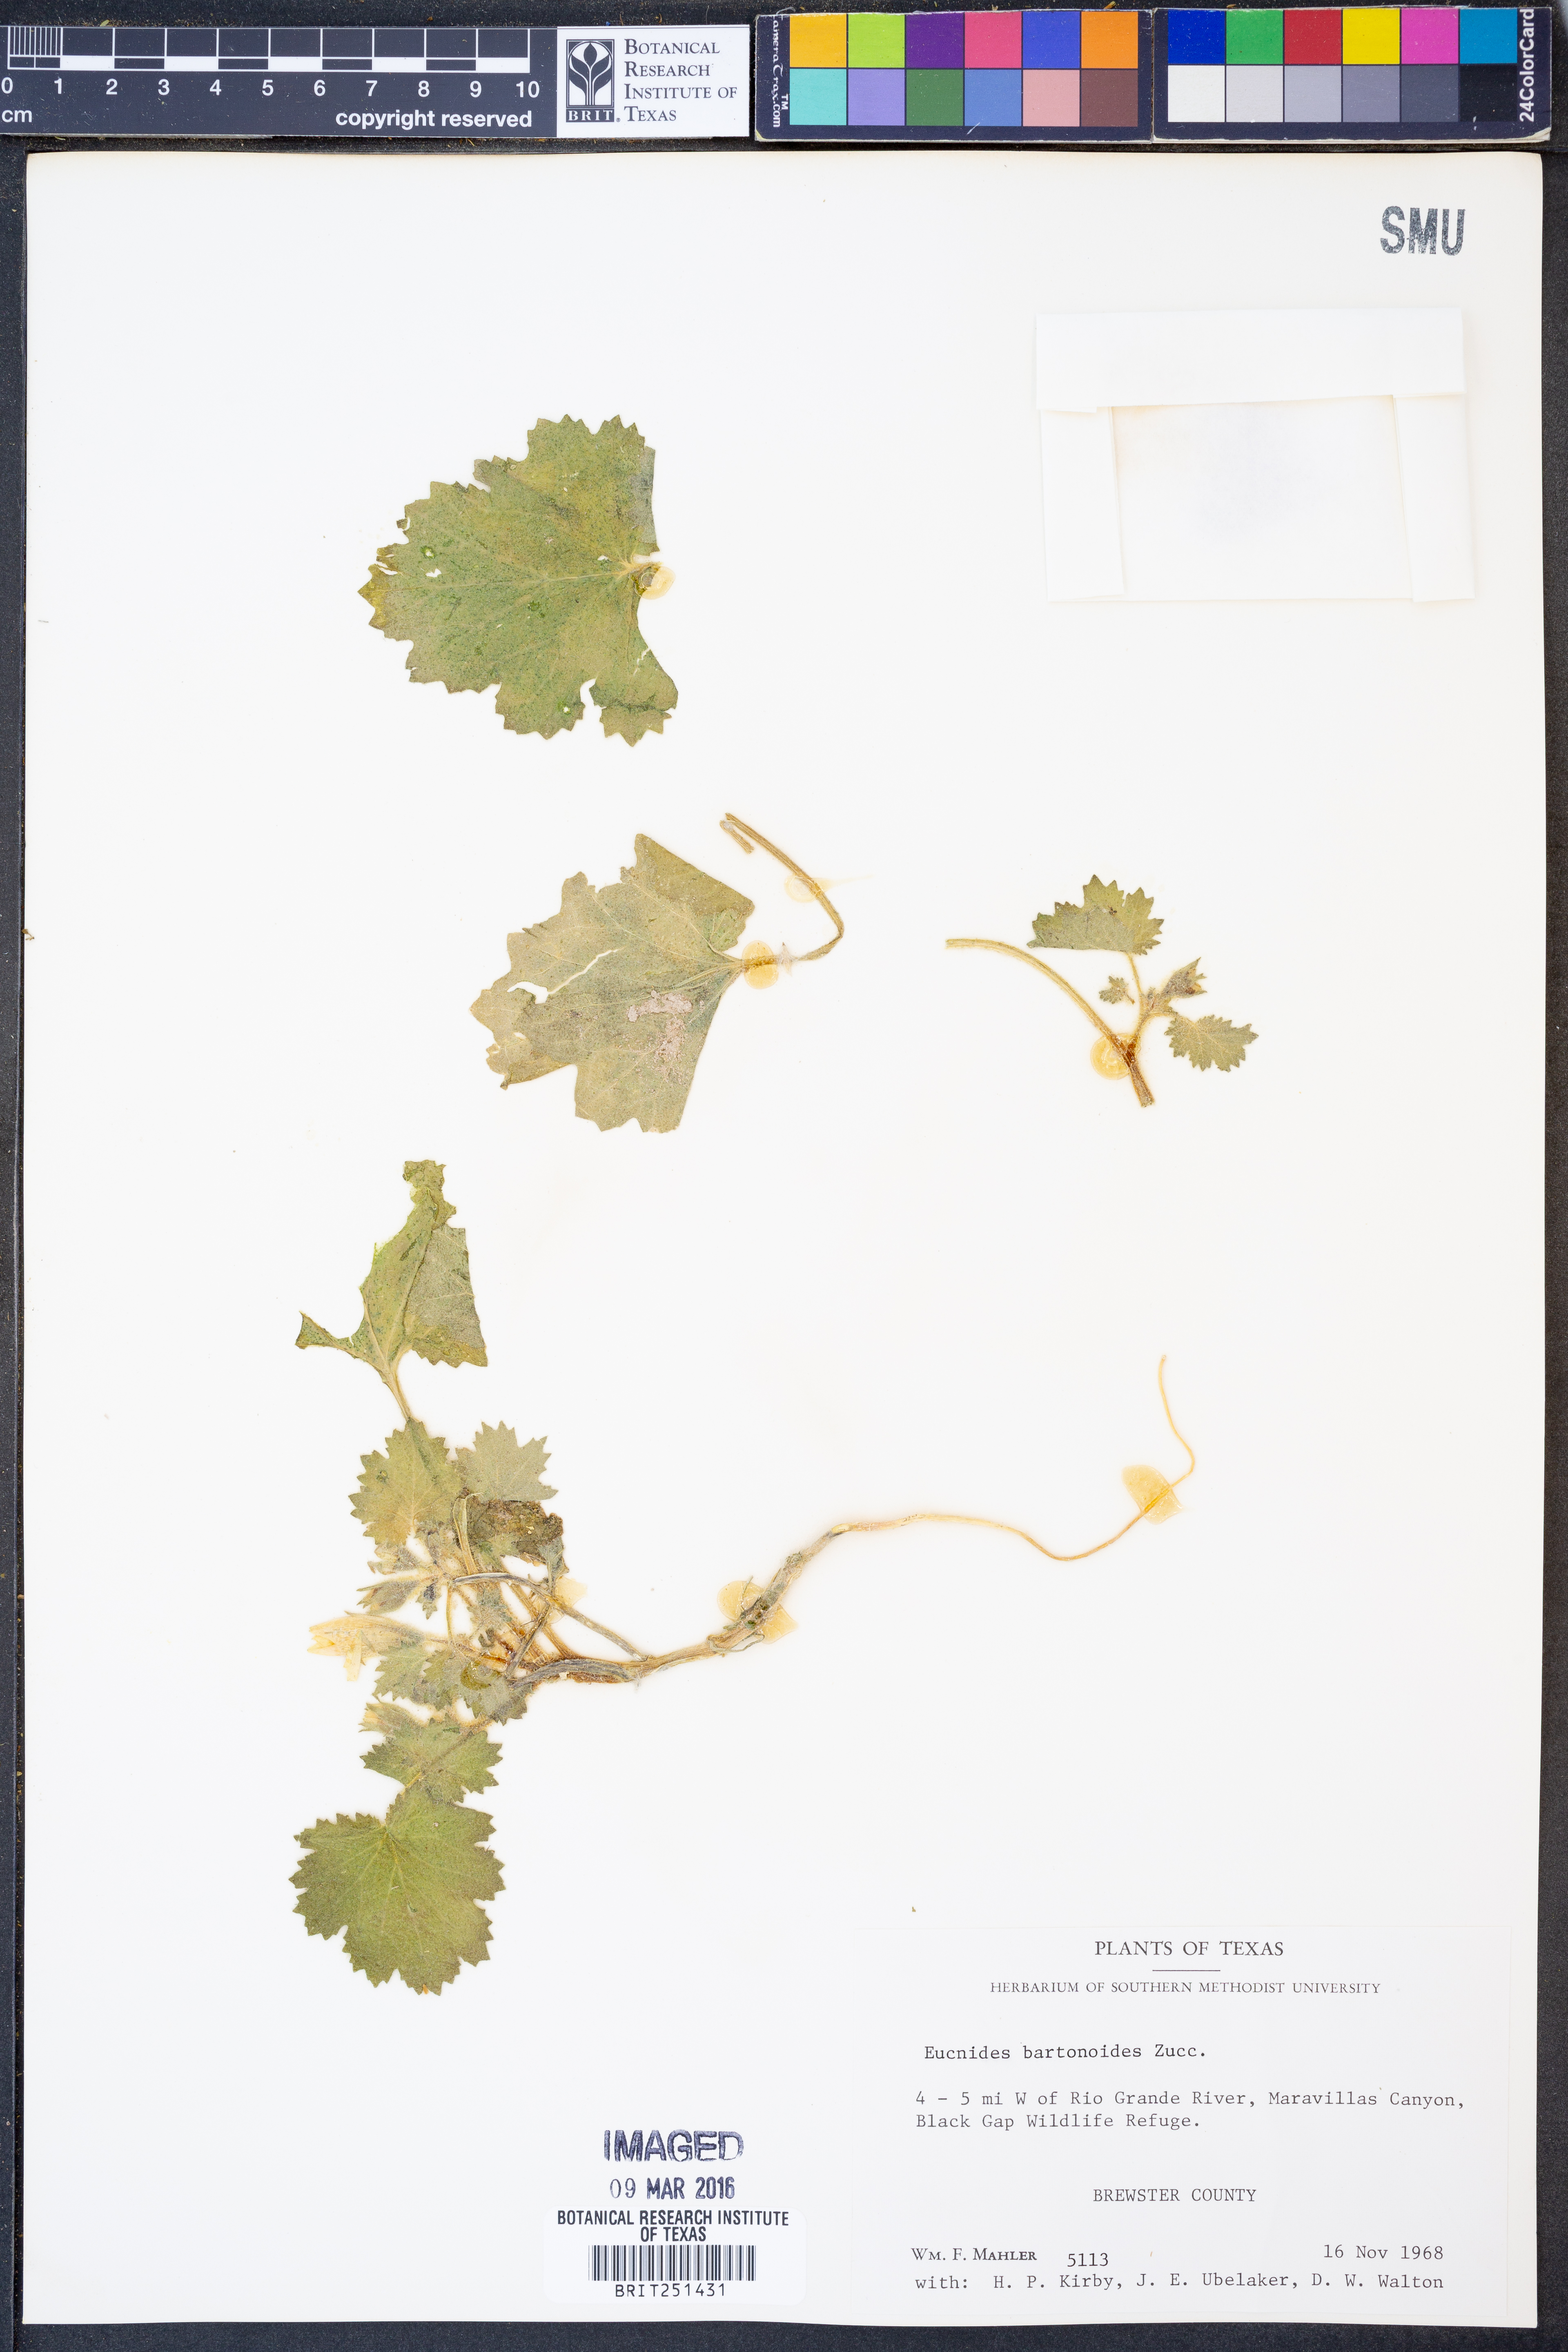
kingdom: Plantae
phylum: Tracheophyta
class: Magnoliopsida
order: Cornales
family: Loasaceae
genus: Eucnide
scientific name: Eucnide bartonioides
